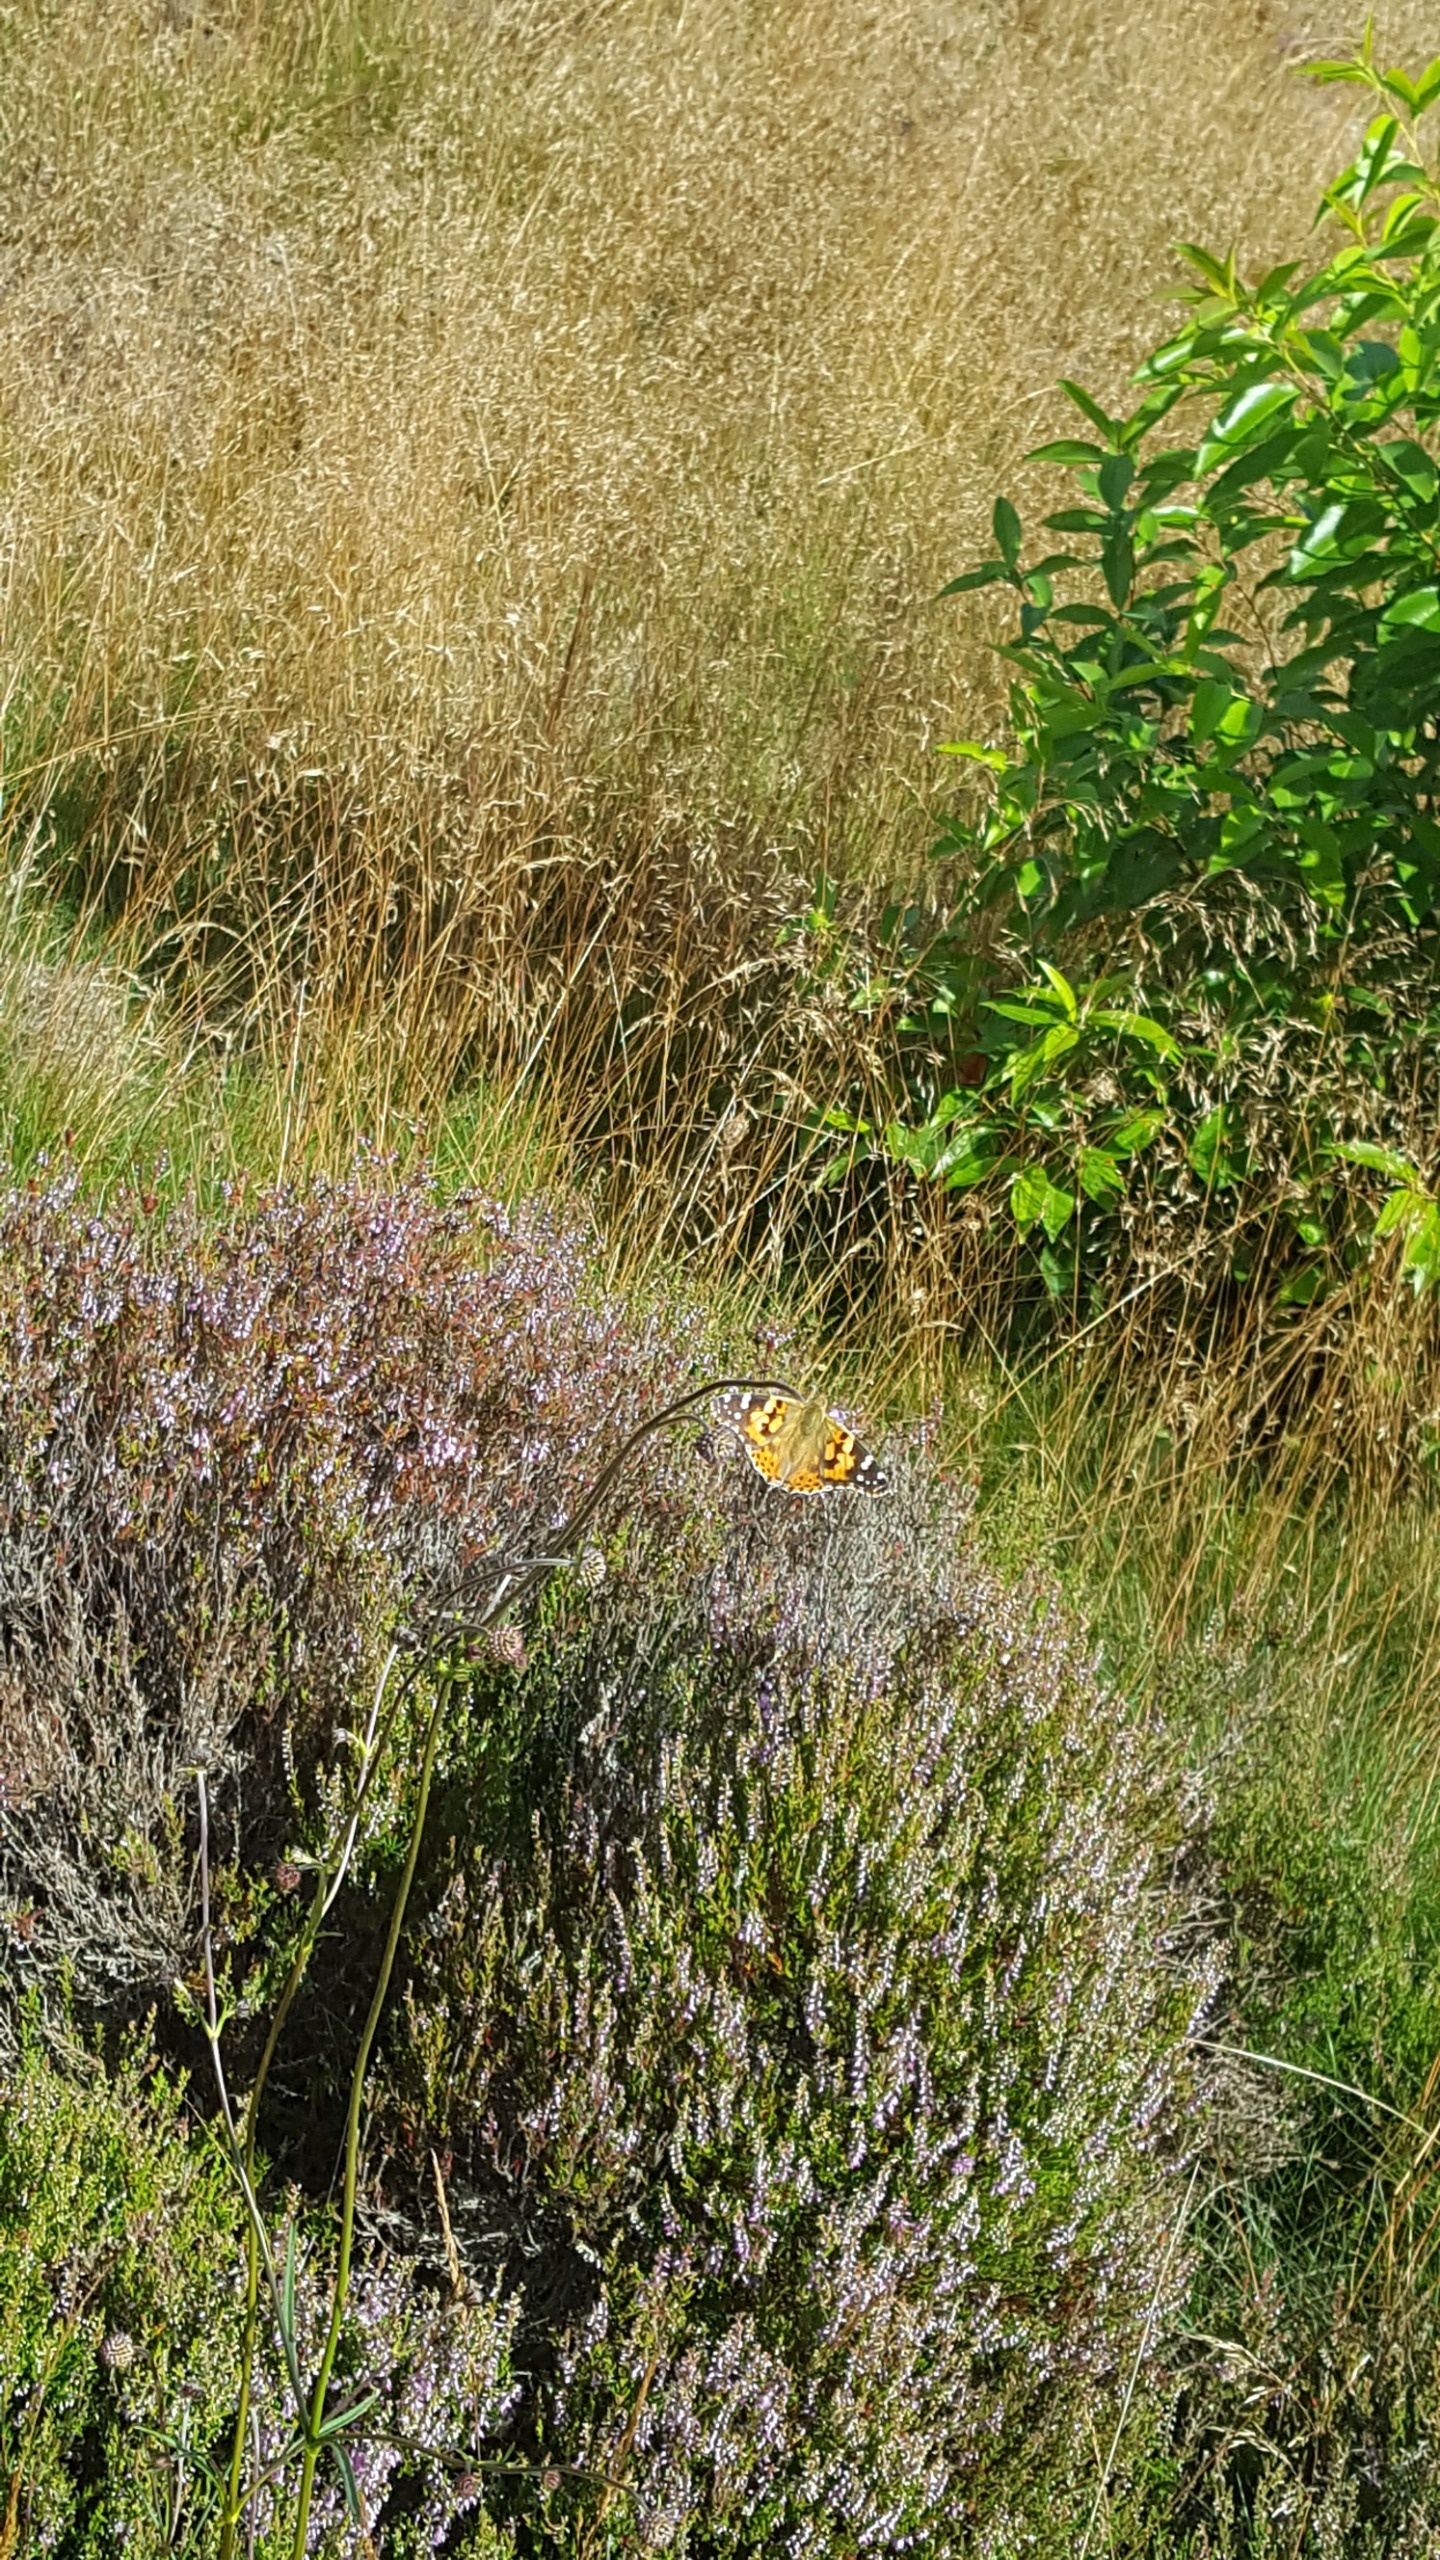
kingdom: Animalia
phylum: Arthropoda
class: Insecta
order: Lepidoptera
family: Nymphalidae
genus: Vanessa
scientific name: Vanessa cardui
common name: Tidselsommerfugl
